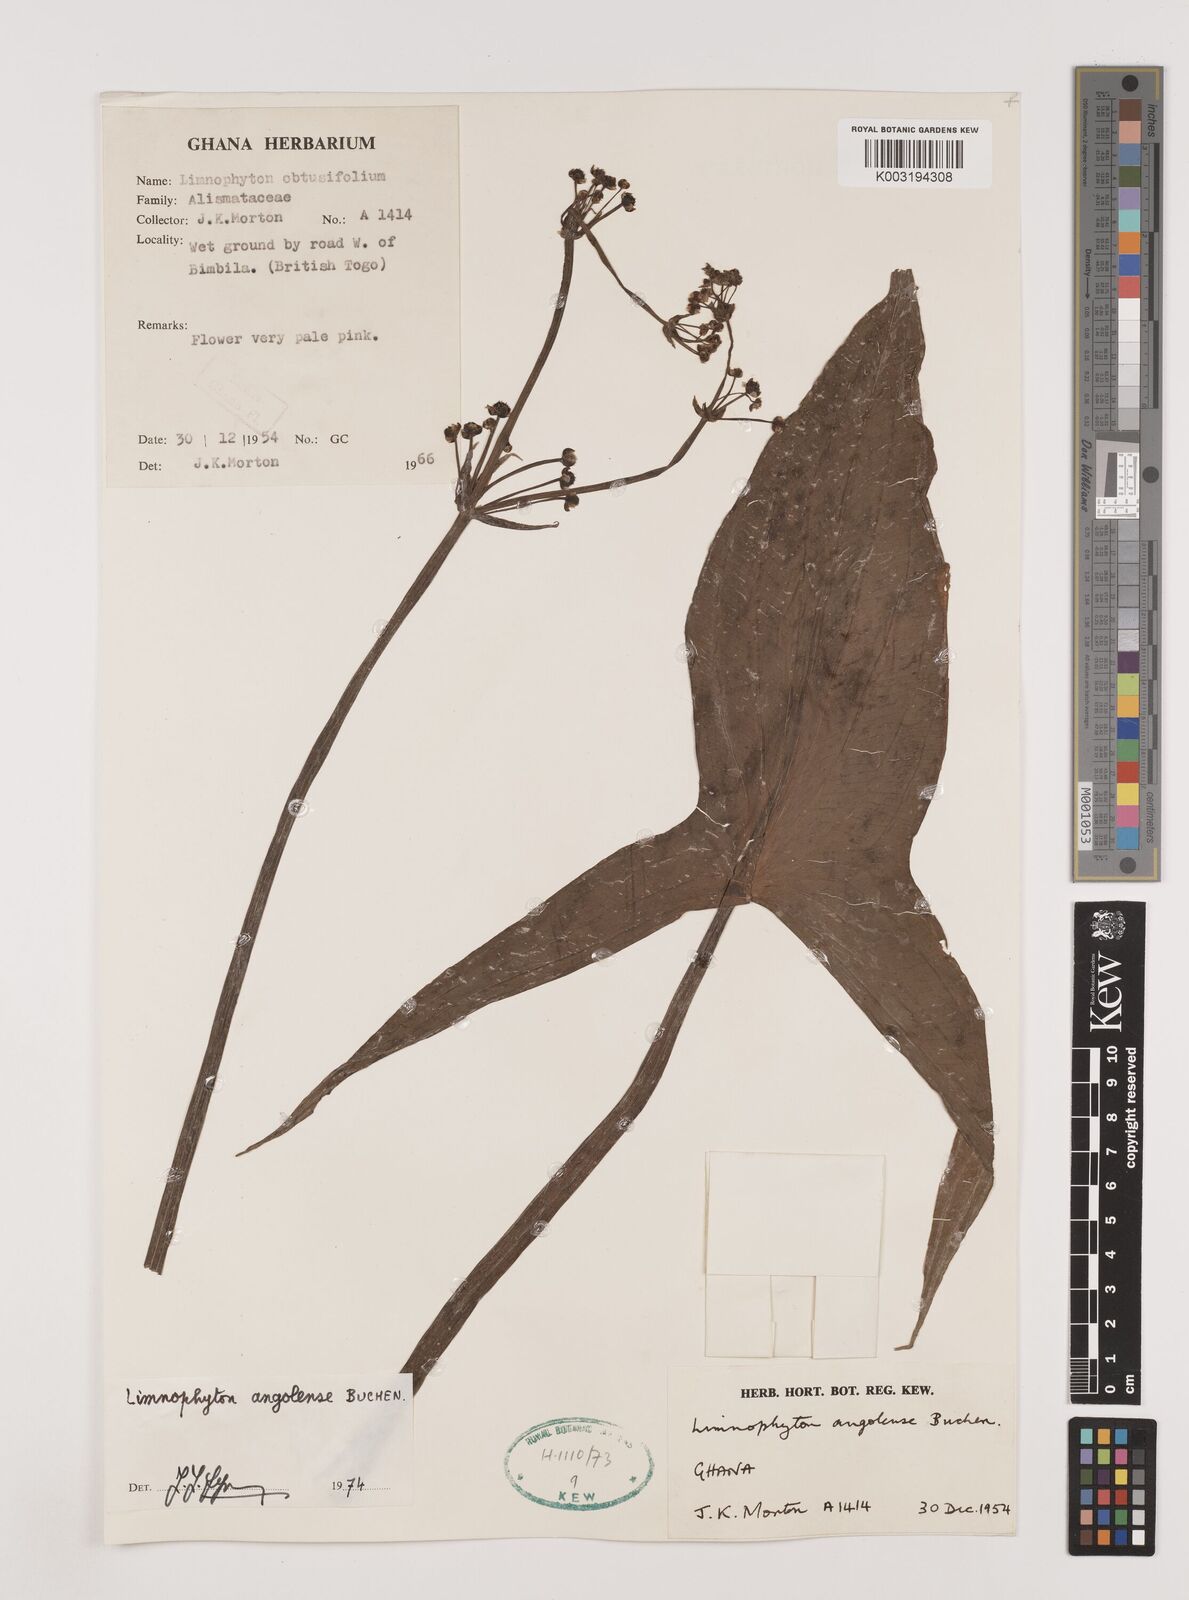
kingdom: Plantae
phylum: Tracheophyta
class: Liliopsida
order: Alismatales
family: Alismataceae
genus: Limnophyton
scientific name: Limnophyton angolense
